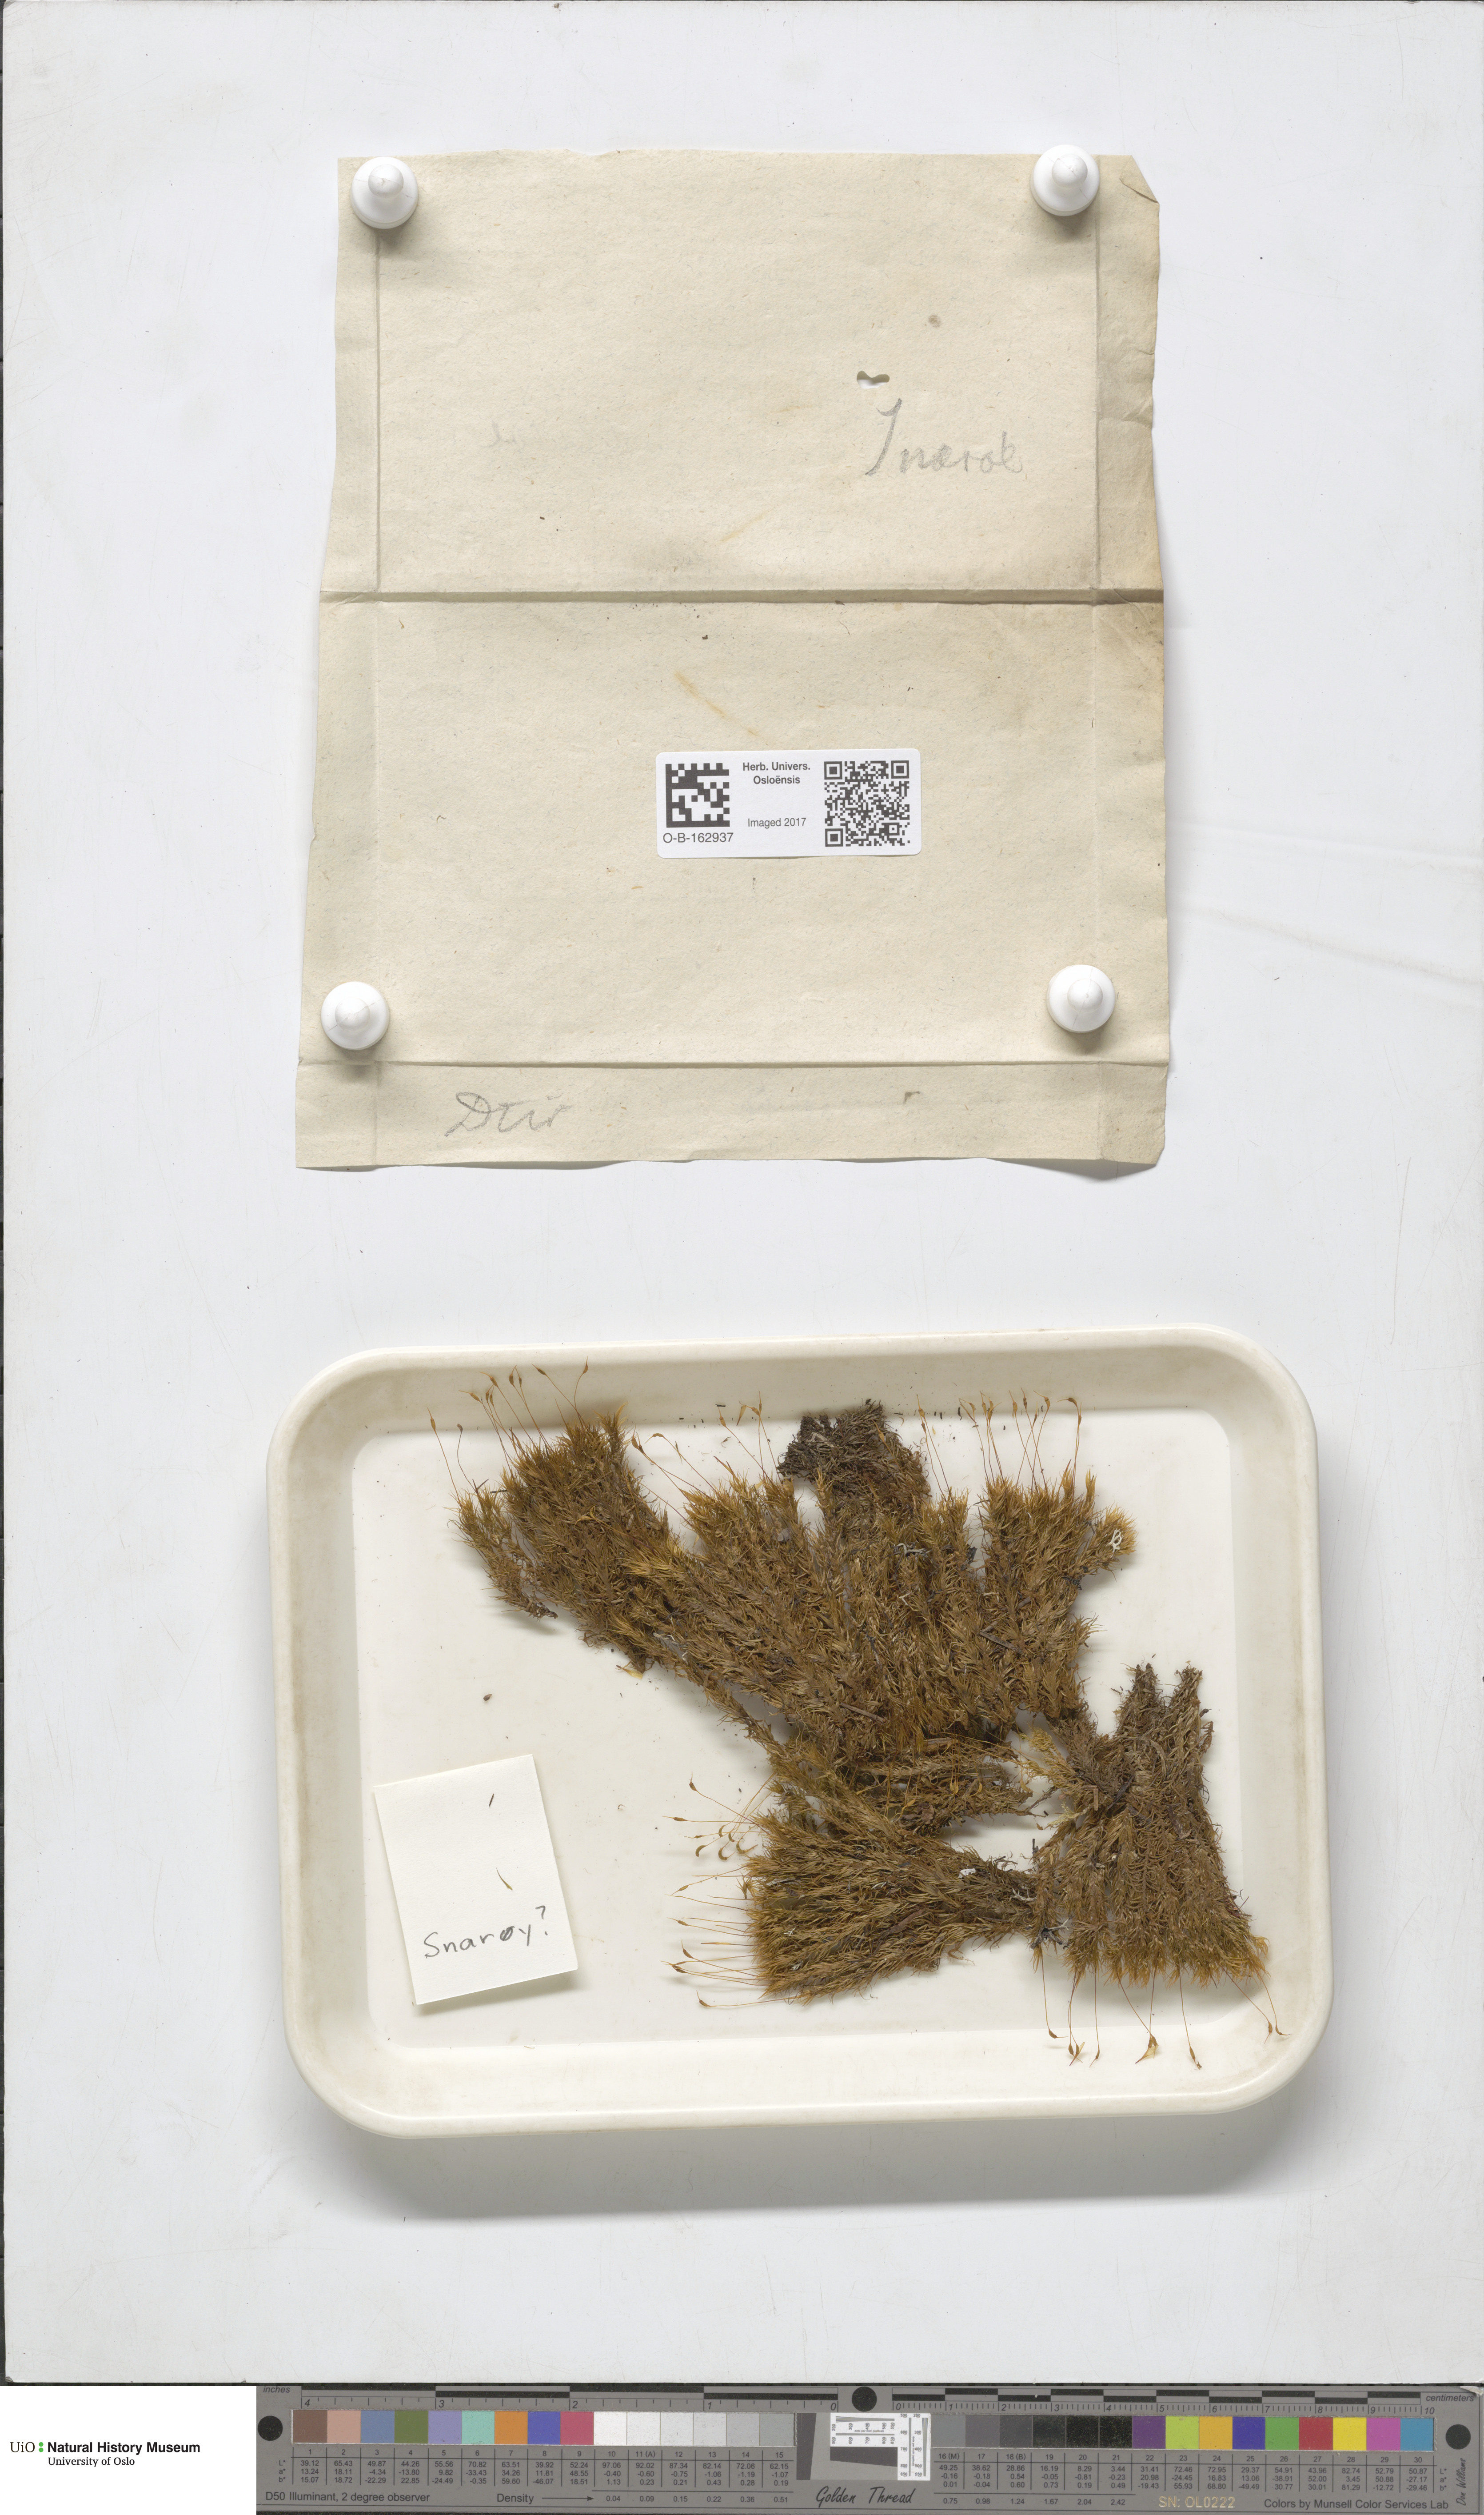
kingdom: Plantae
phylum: Bryophyta
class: Bryopsida
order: Dicranales
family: Dicranaceae
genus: Dicranum
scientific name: Dicranum scoparium
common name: Broom fork-moss
